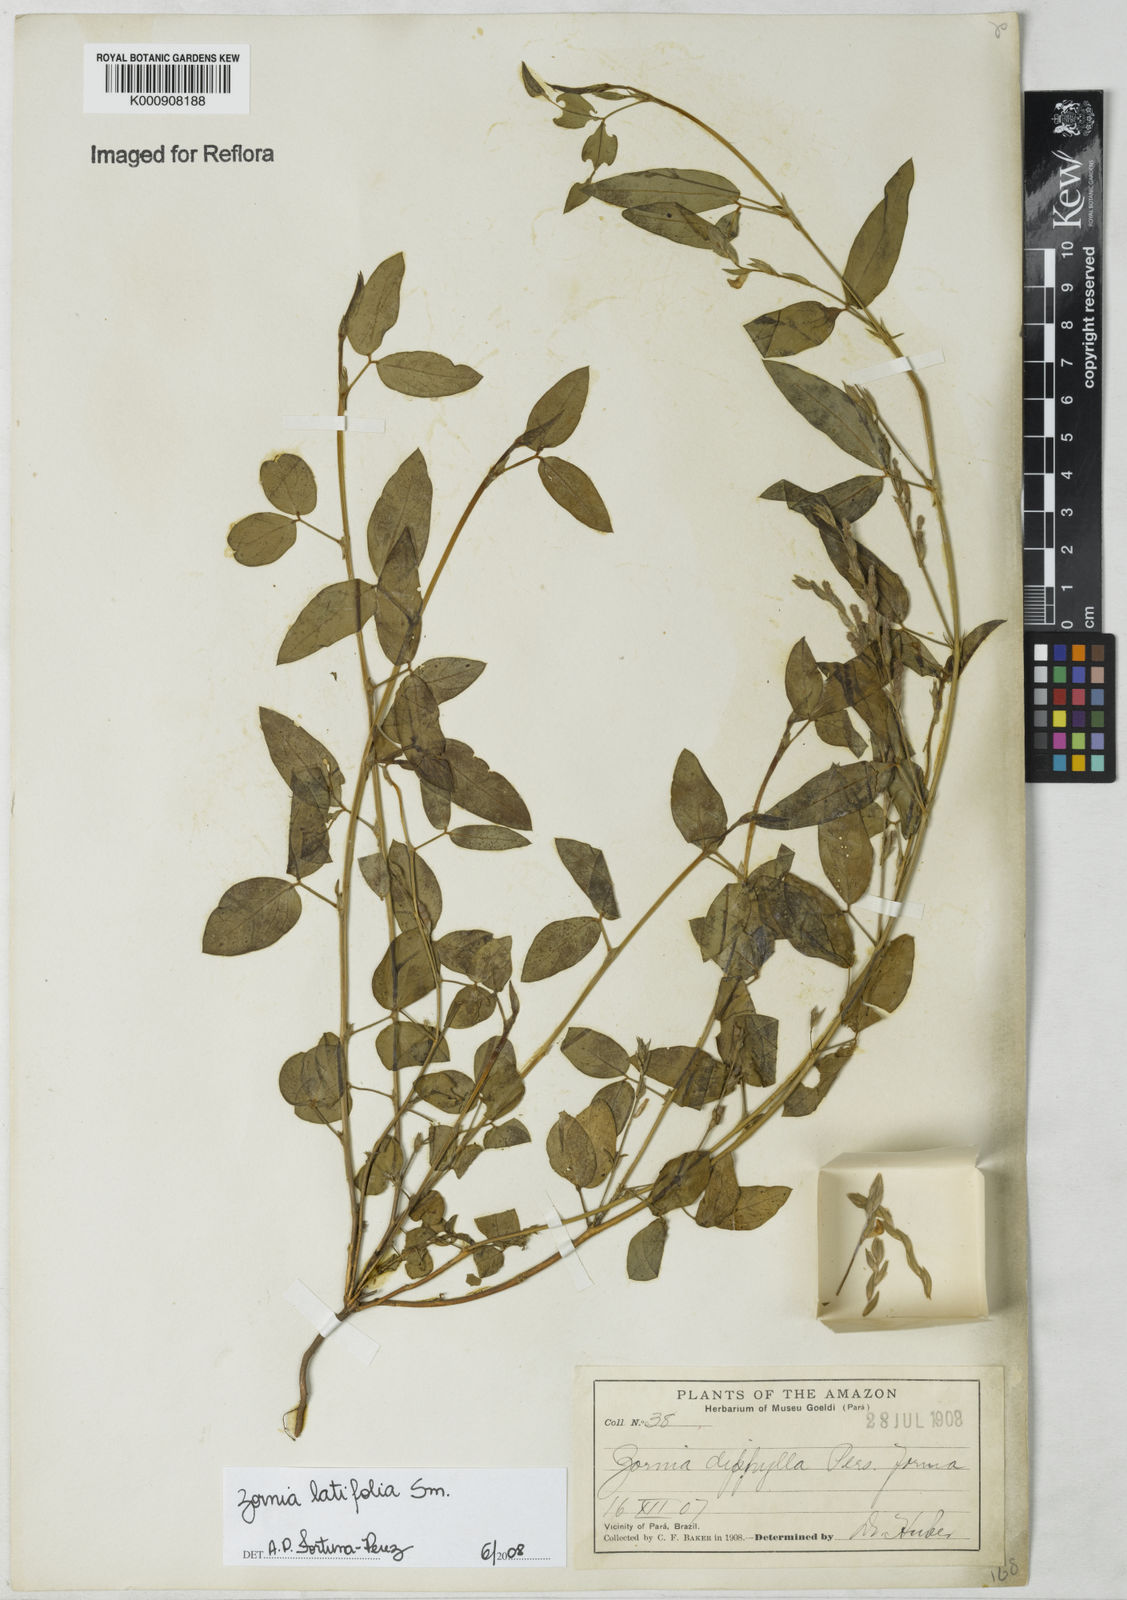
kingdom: Plantae
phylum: Tracheophyta
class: Magnoliopsida
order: Fabales
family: Fabaceae
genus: Zornia
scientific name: Zornia latifolia
